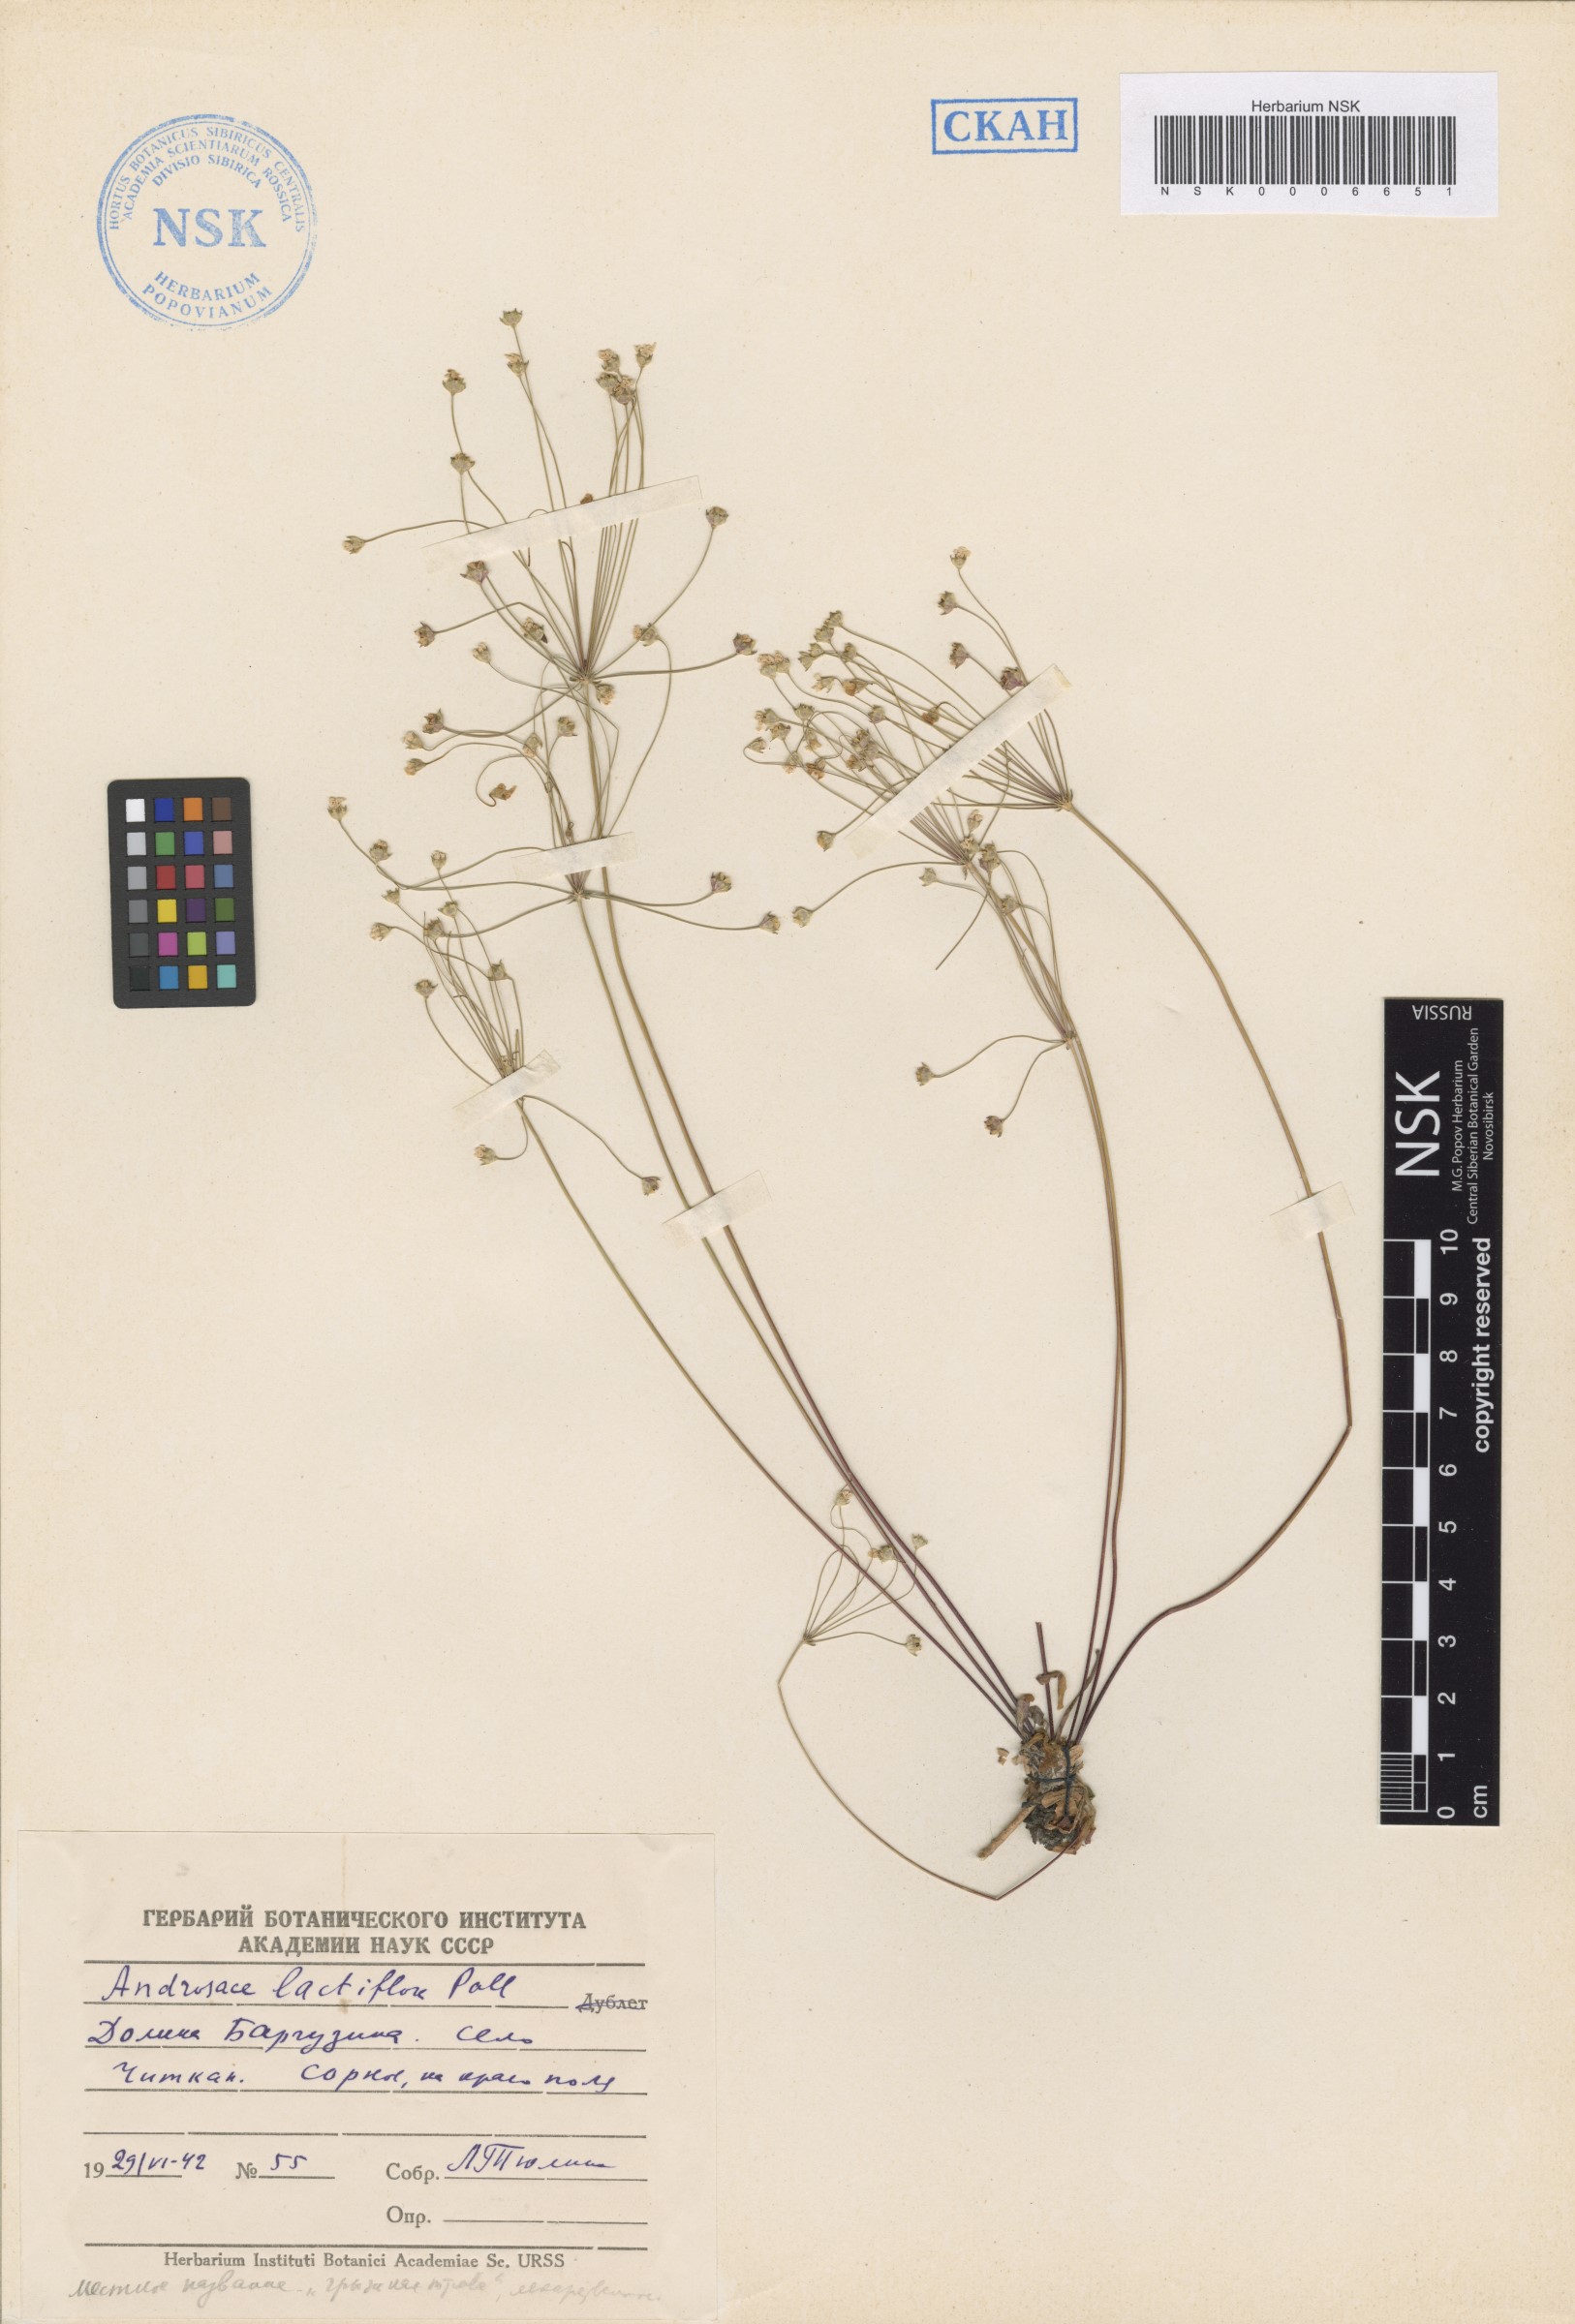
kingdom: Plantae
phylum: Tracheophyta
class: Magnoliopsida
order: Ericales
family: Primulaceae
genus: Androsace
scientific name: Androsace lactiflora
